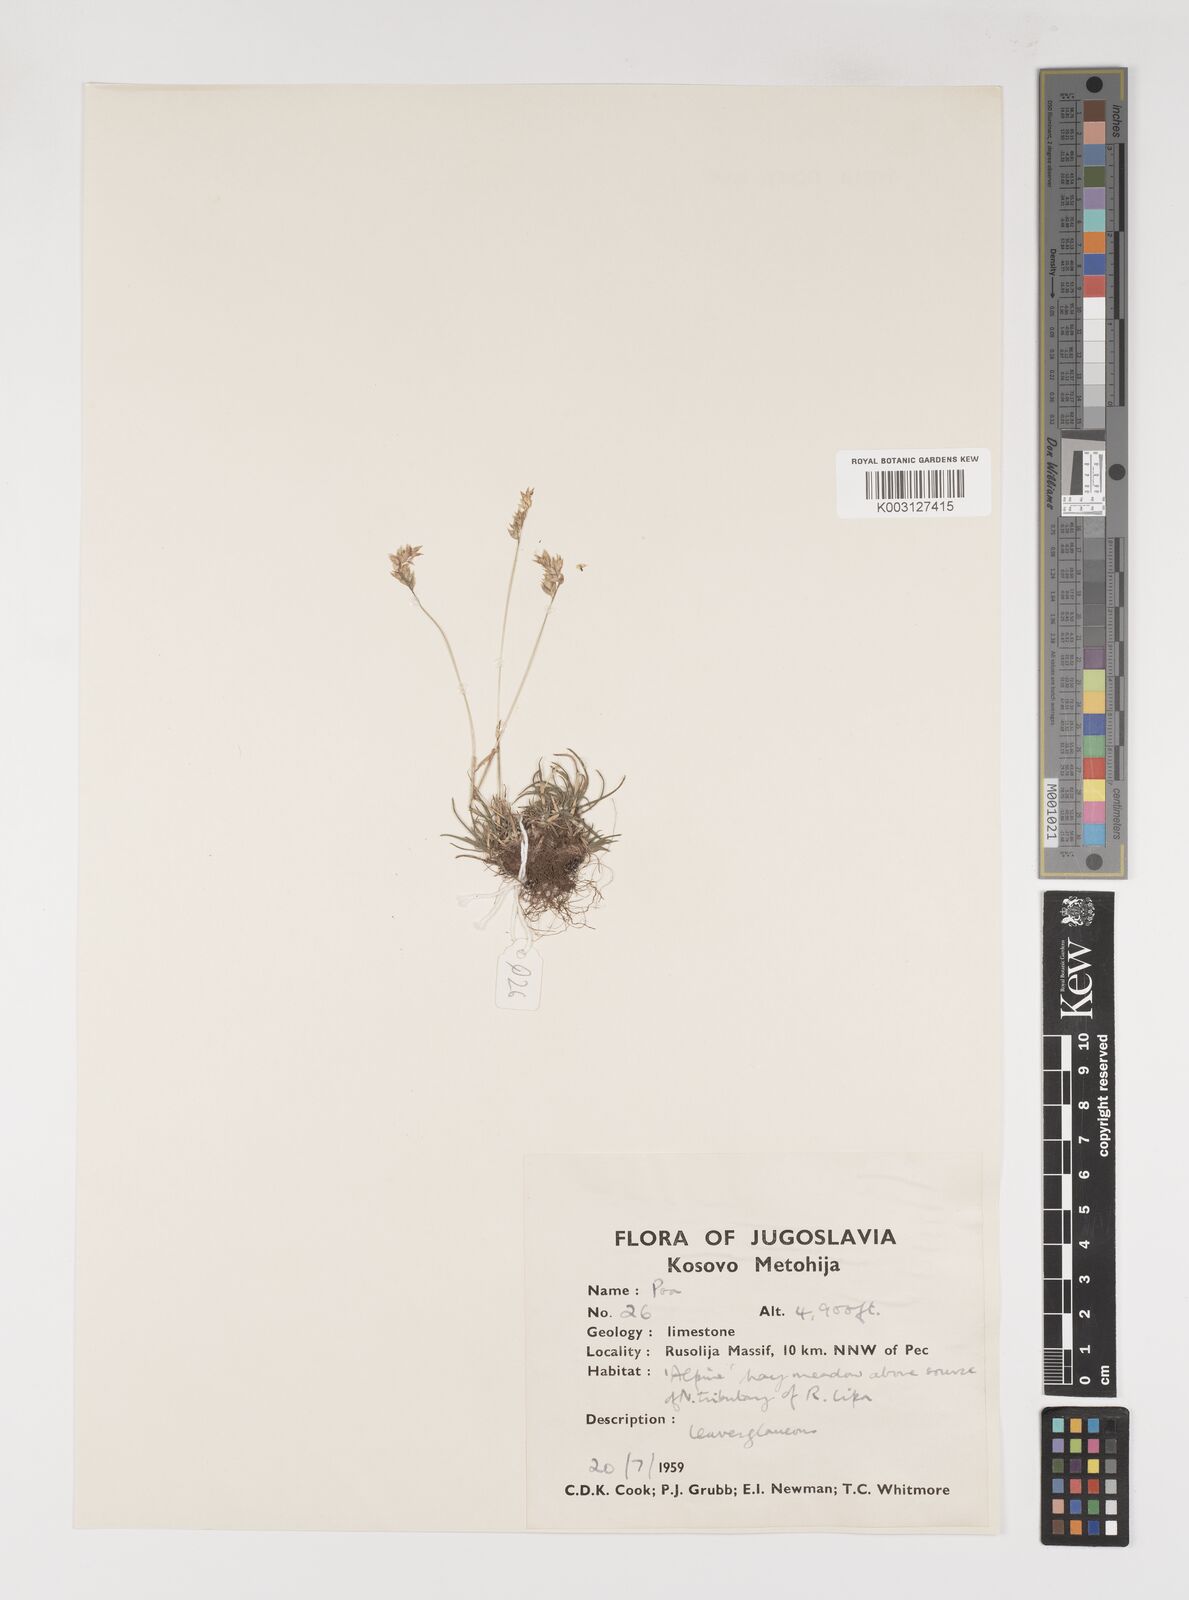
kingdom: Plantae
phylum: Tracheophyta
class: Liliopsida
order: Poales
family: Poaceae
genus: Poa
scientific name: Poa alpina
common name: Alpine bluegrass
